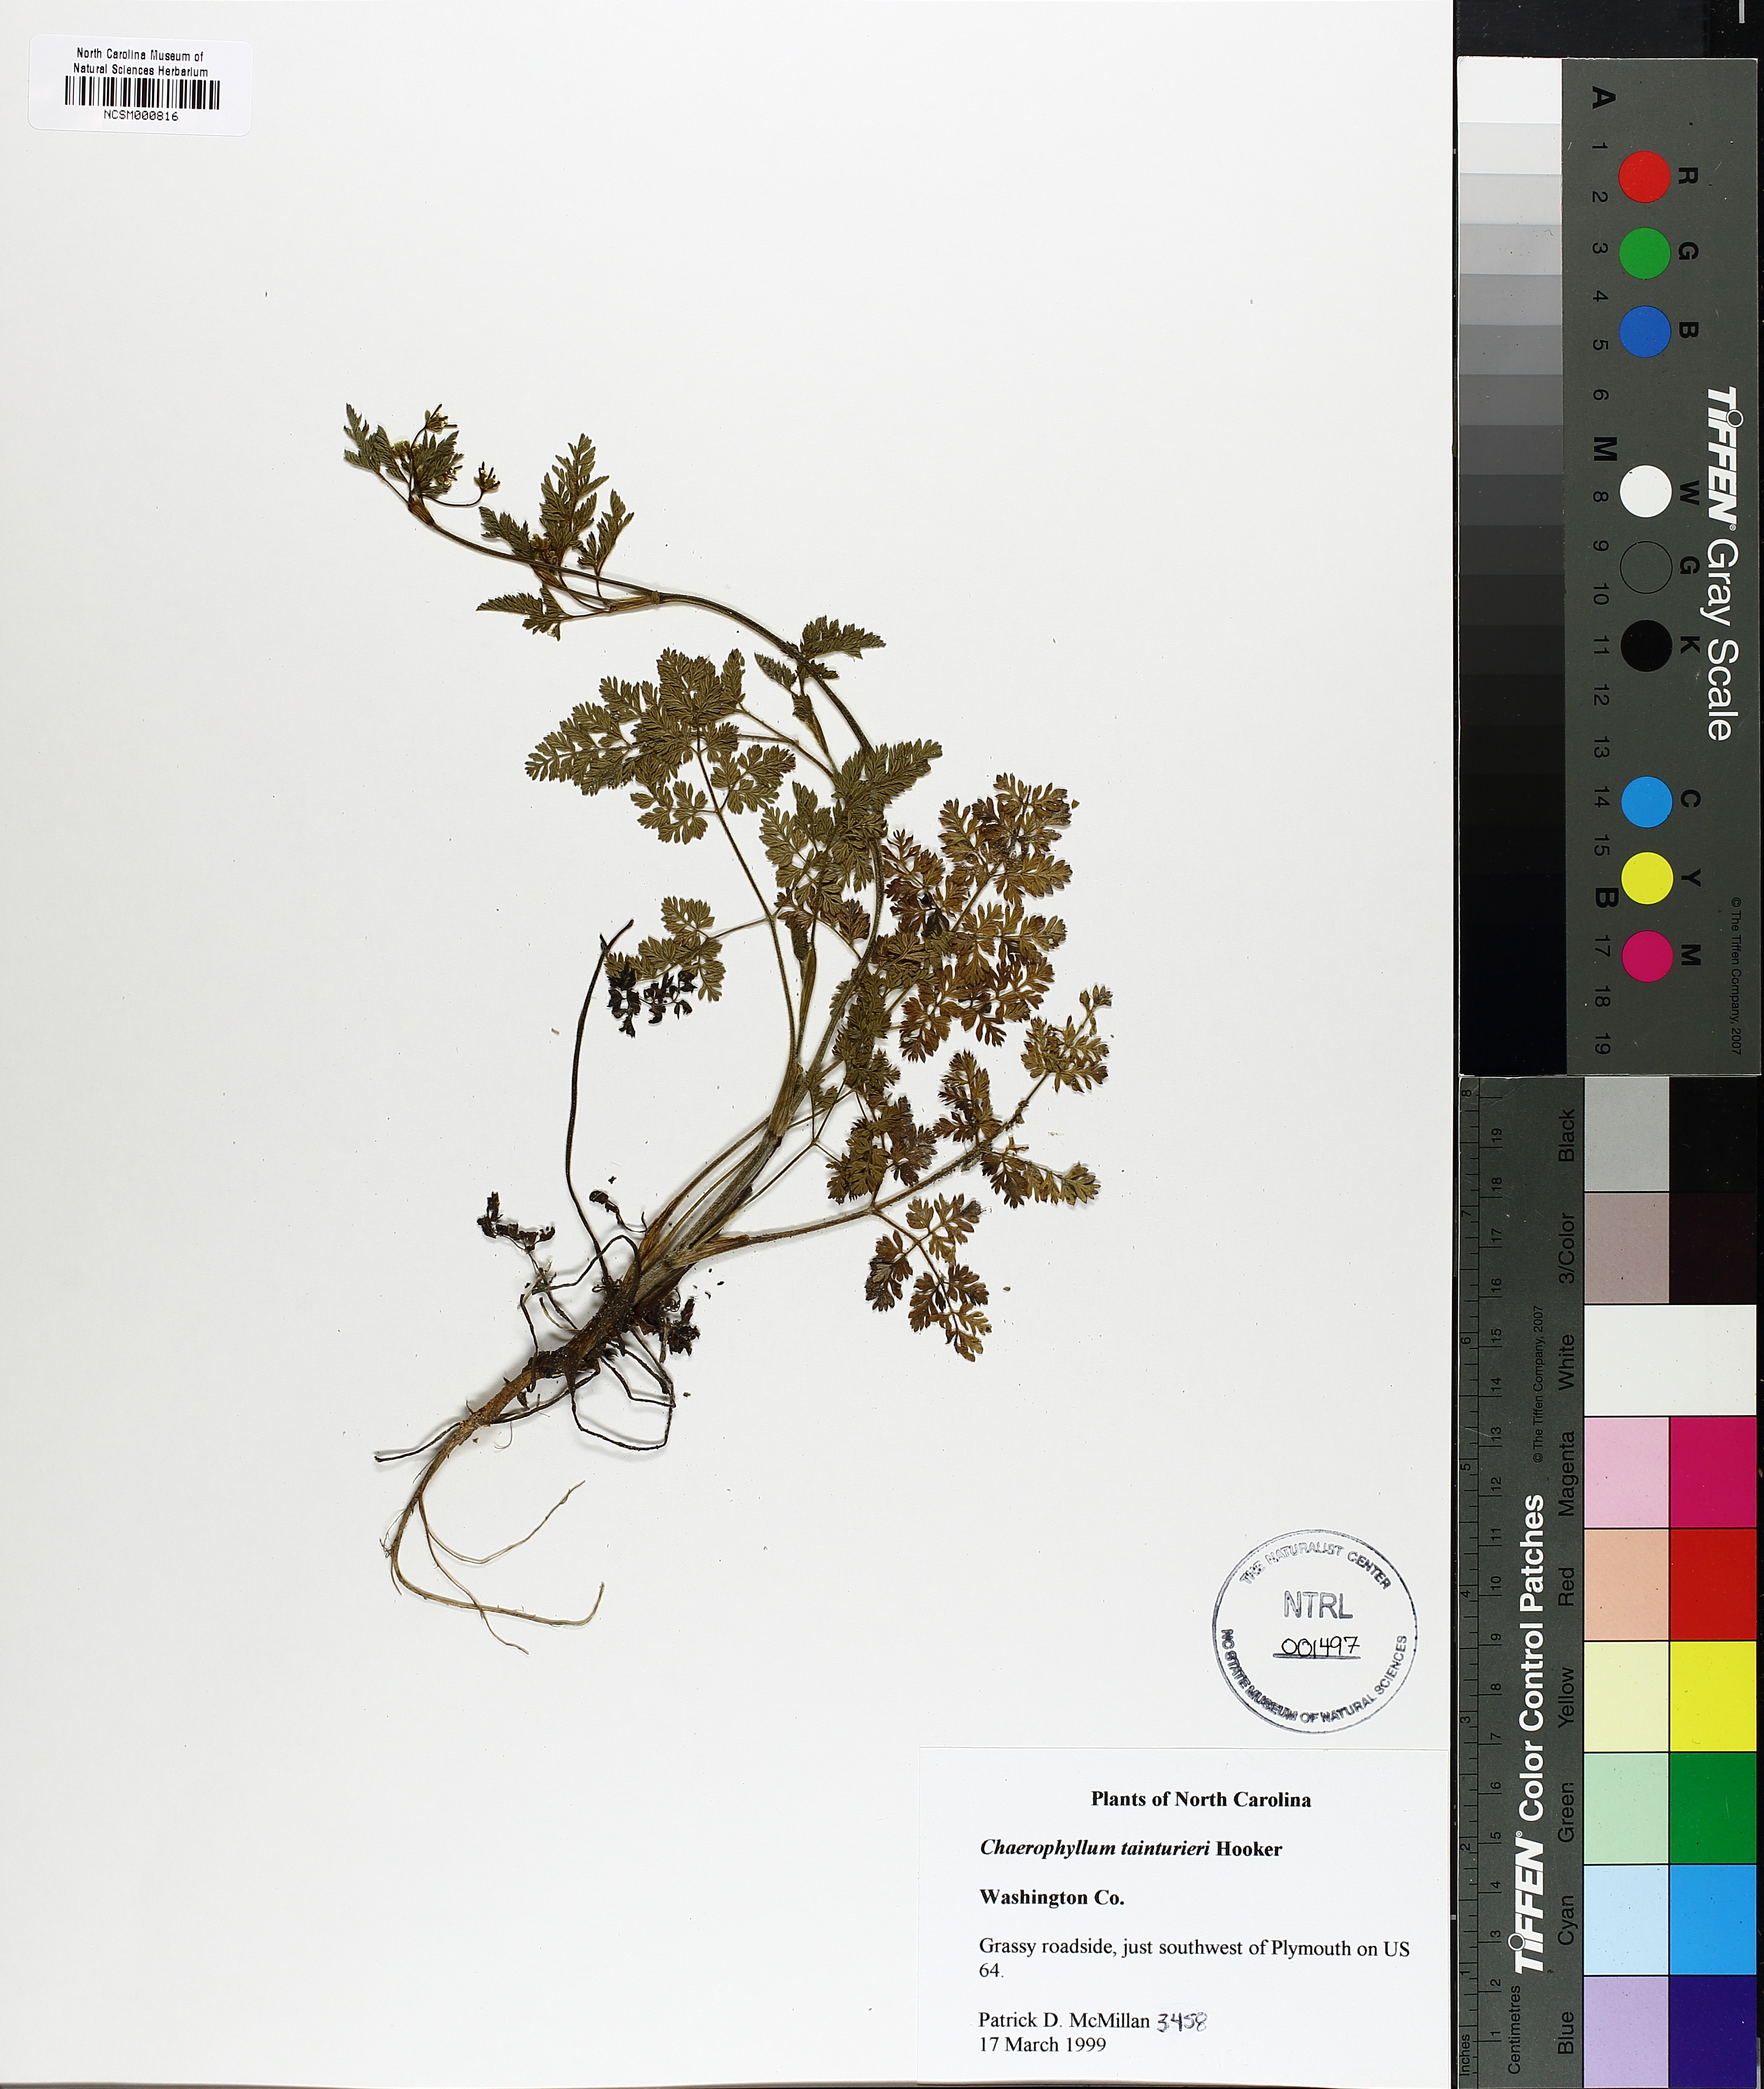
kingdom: Plantae
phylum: Tracheophyta
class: Magnoliopsida
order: Apiales
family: Apiaceae
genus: Chaerophyllum
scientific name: Chaerophyllum tainturieri
